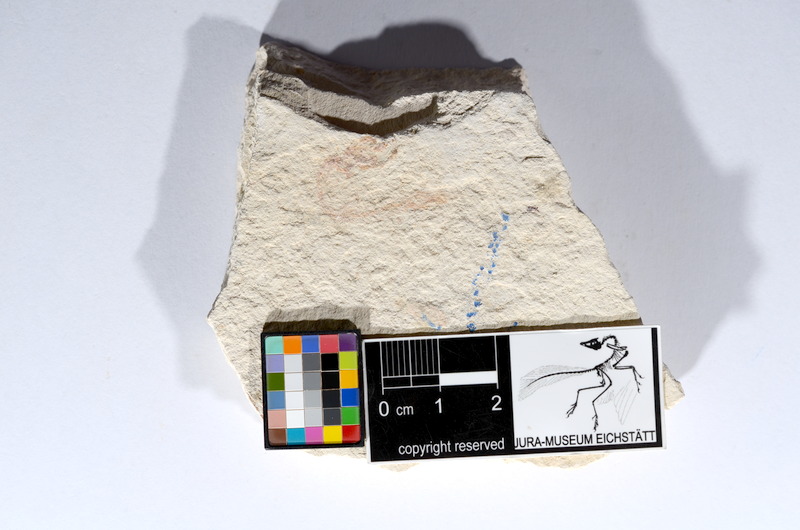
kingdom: Animalia
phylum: Chordata
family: Ascalaboidae
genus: Tharsis
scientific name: Tharsis dubius
